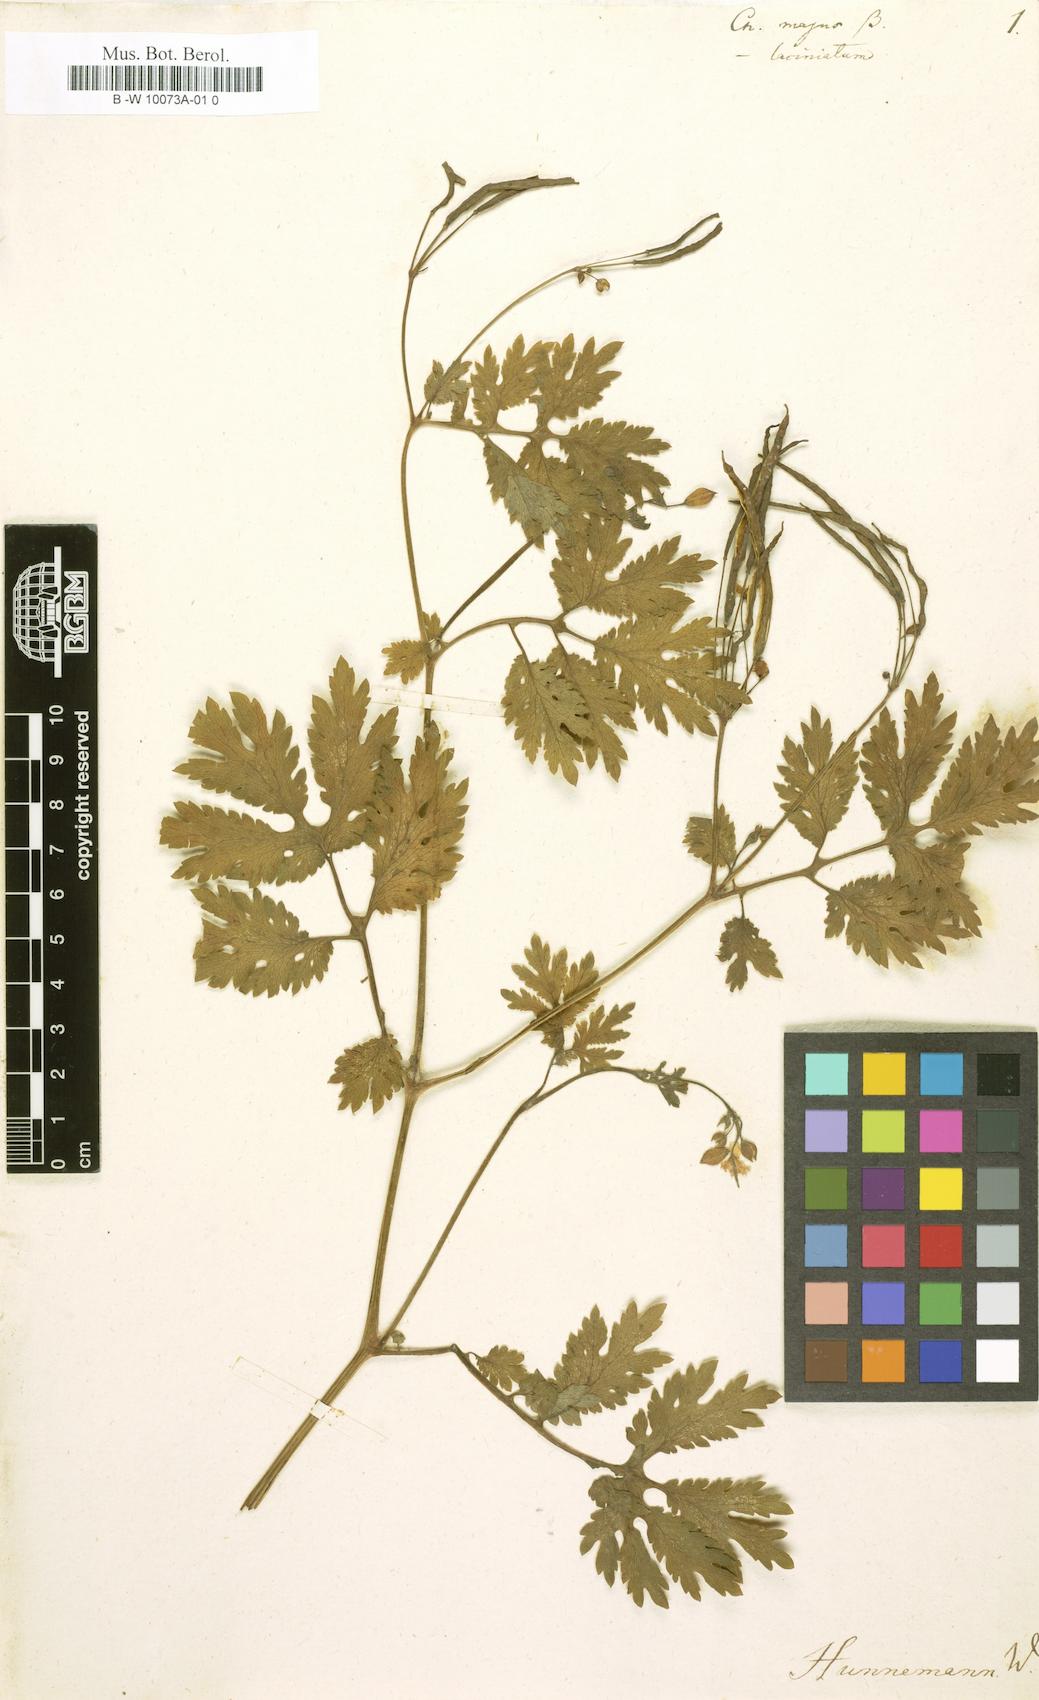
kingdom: Plantae
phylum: Tracheophyta
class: Magnoliopsida
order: Ranunculales
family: Papaveraceae
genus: Chelidonium
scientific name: Chelidonium majus
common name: Greater celandine
